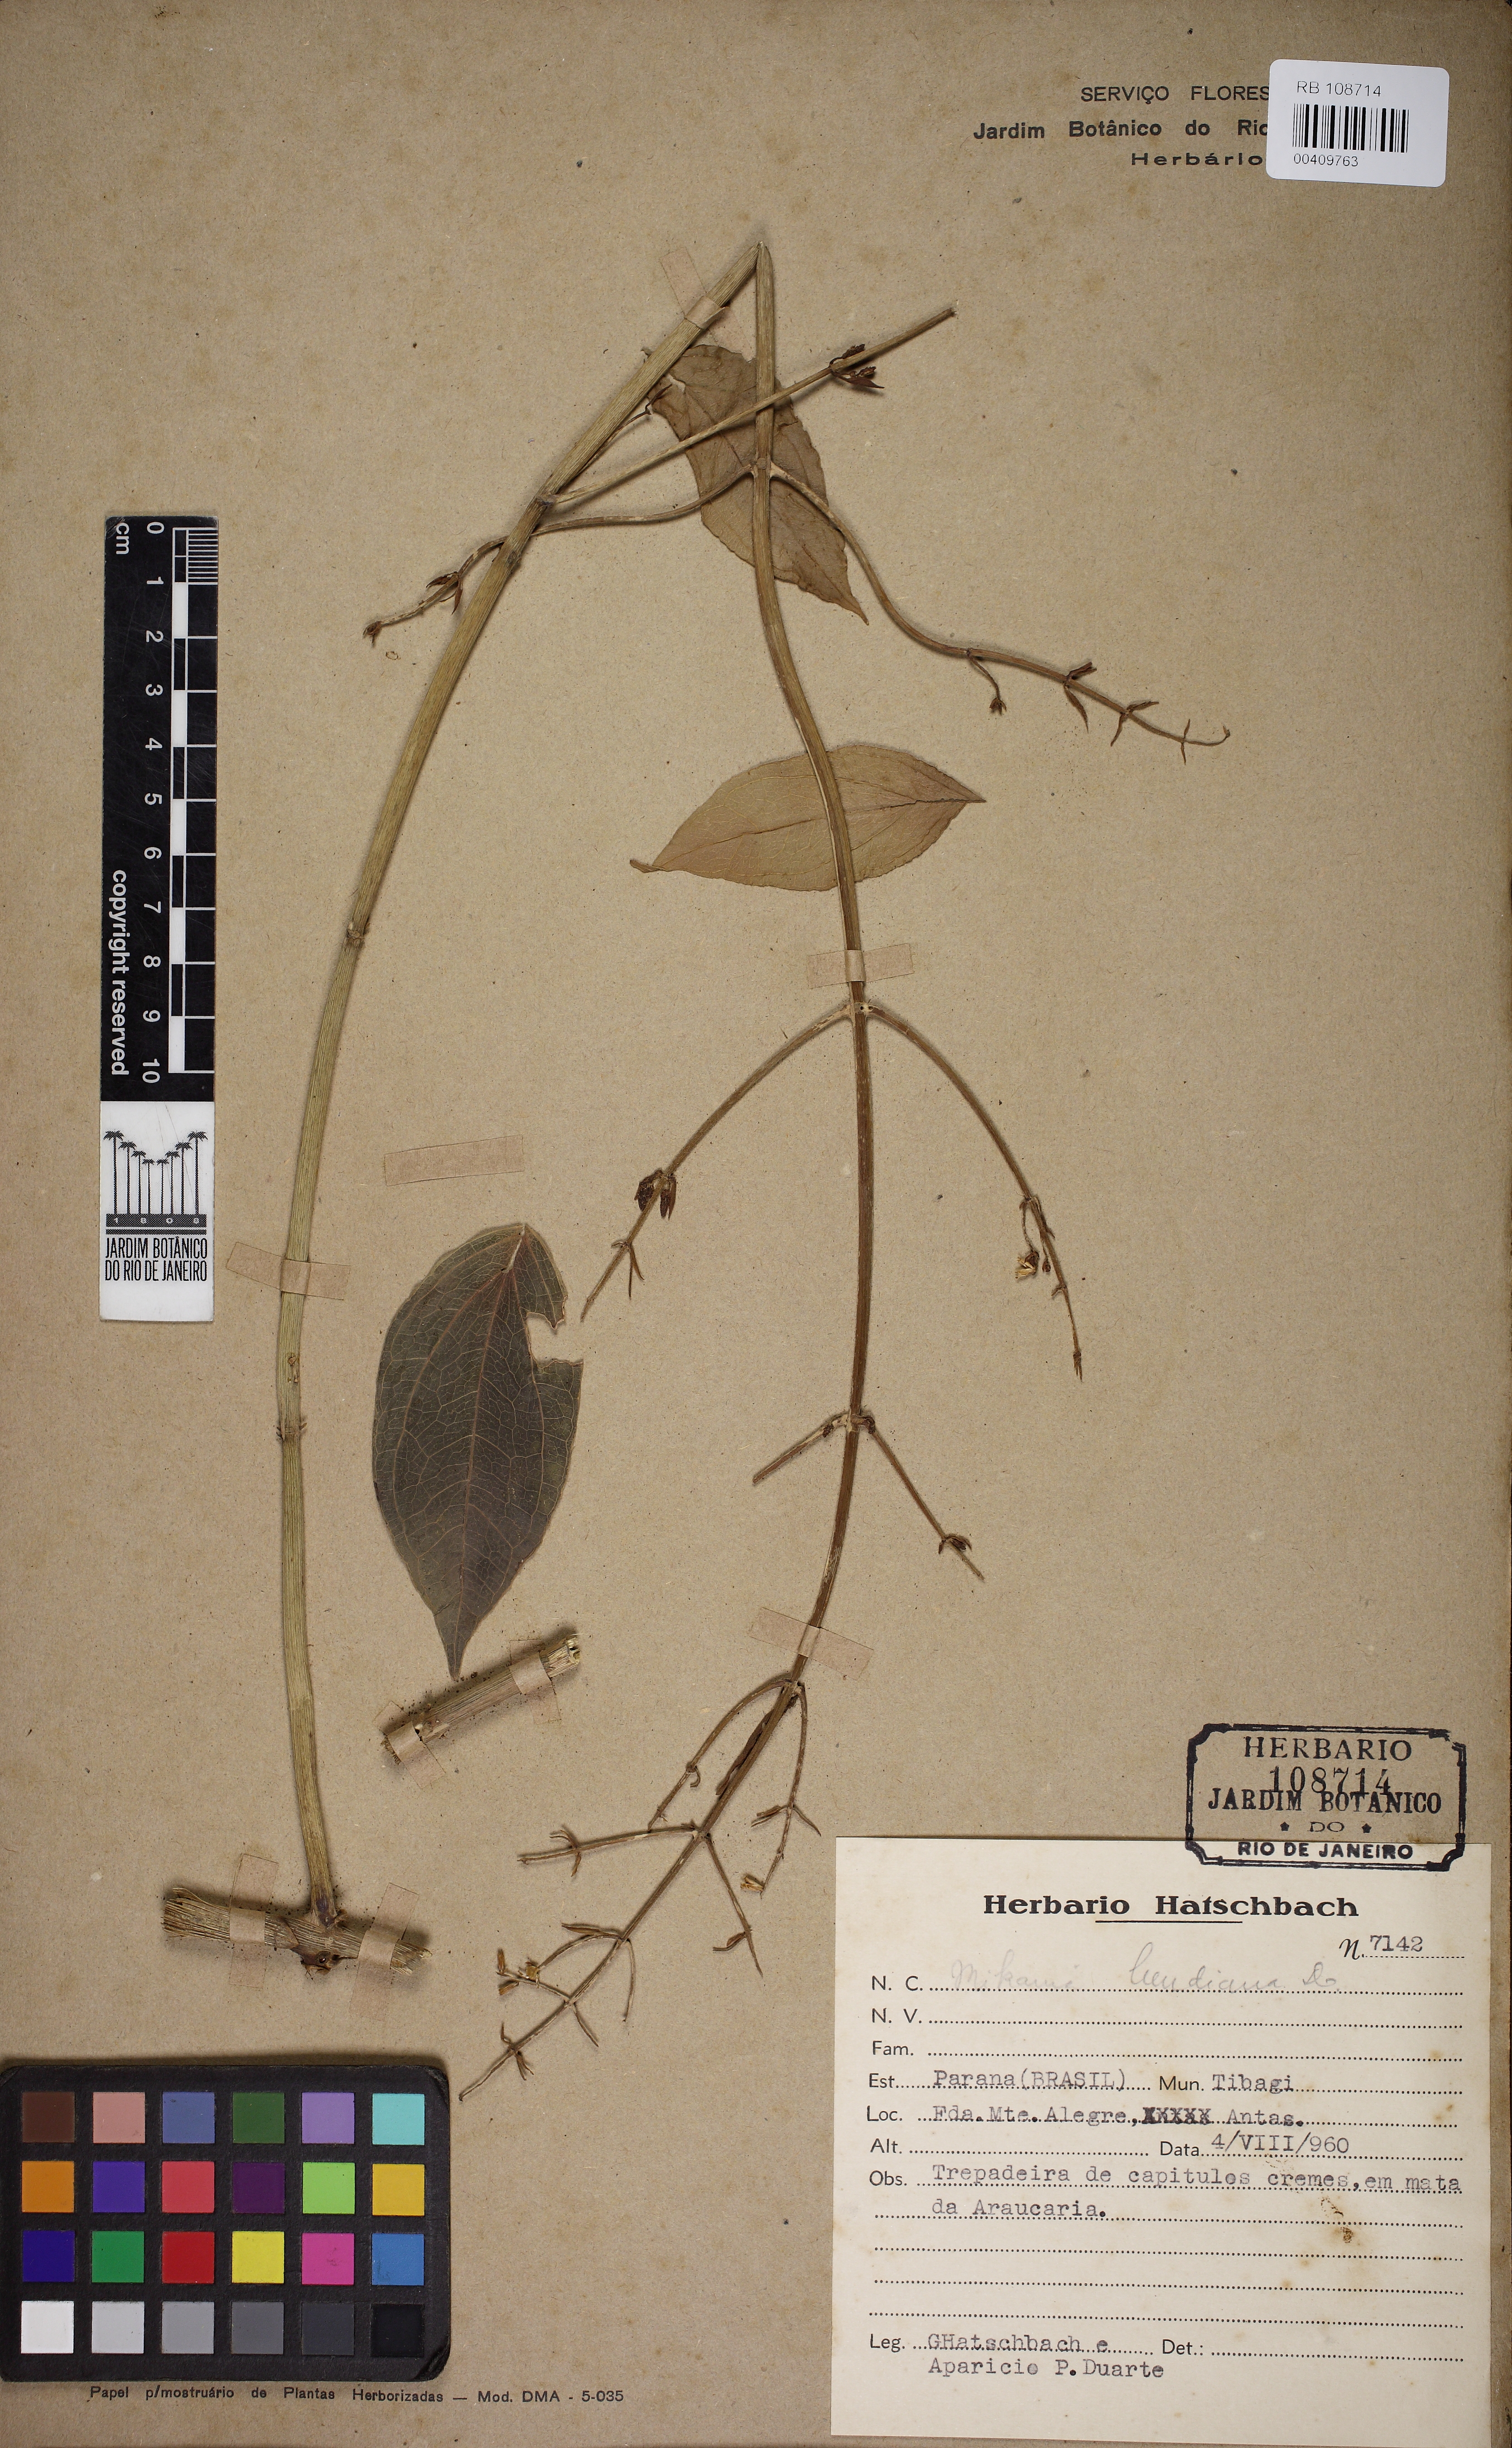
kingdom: Plantae
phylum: Tracheophyta
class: Magnoliopsida
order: Asterales
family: Asteraceae
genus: Mikania
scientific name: Mikania lundiana
